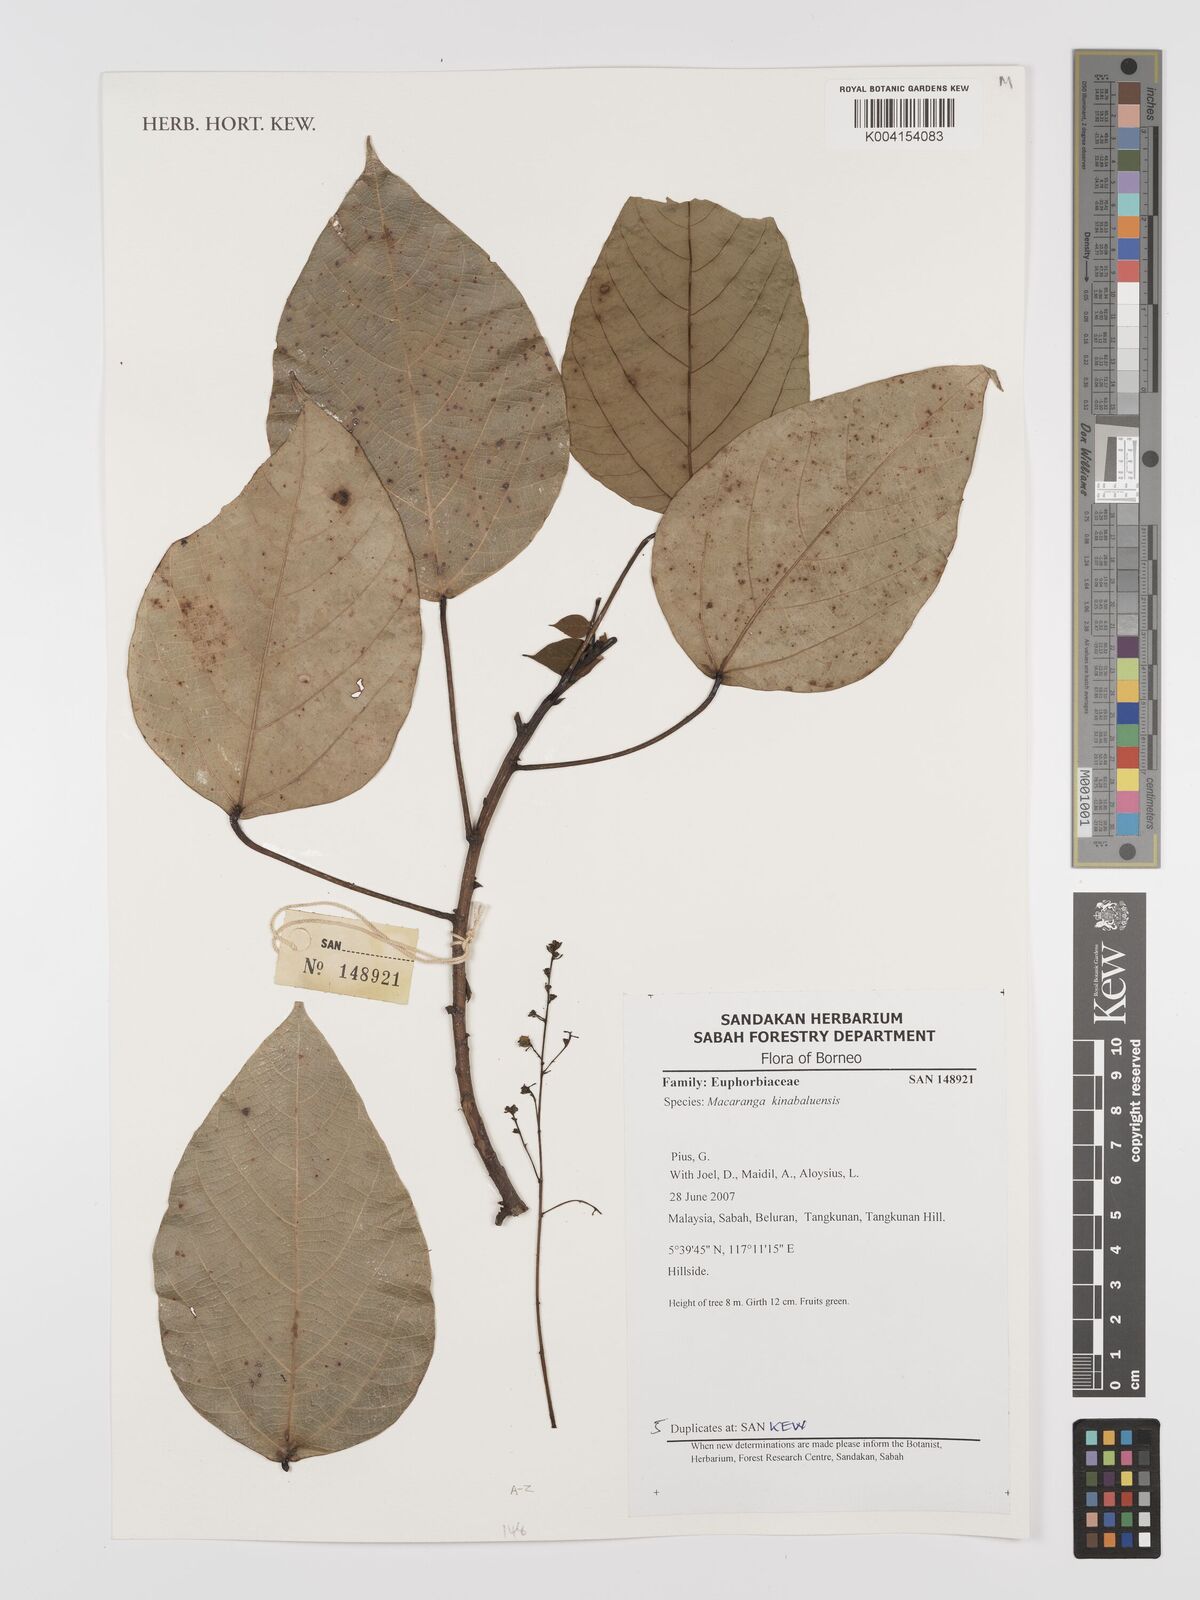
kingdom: Plantae
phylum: Tracheophyta
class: Magnoliopsida
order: Malpighiales
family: Euphorbiaceae
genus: Macaranga
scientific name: Macaranga kinabaluensis
